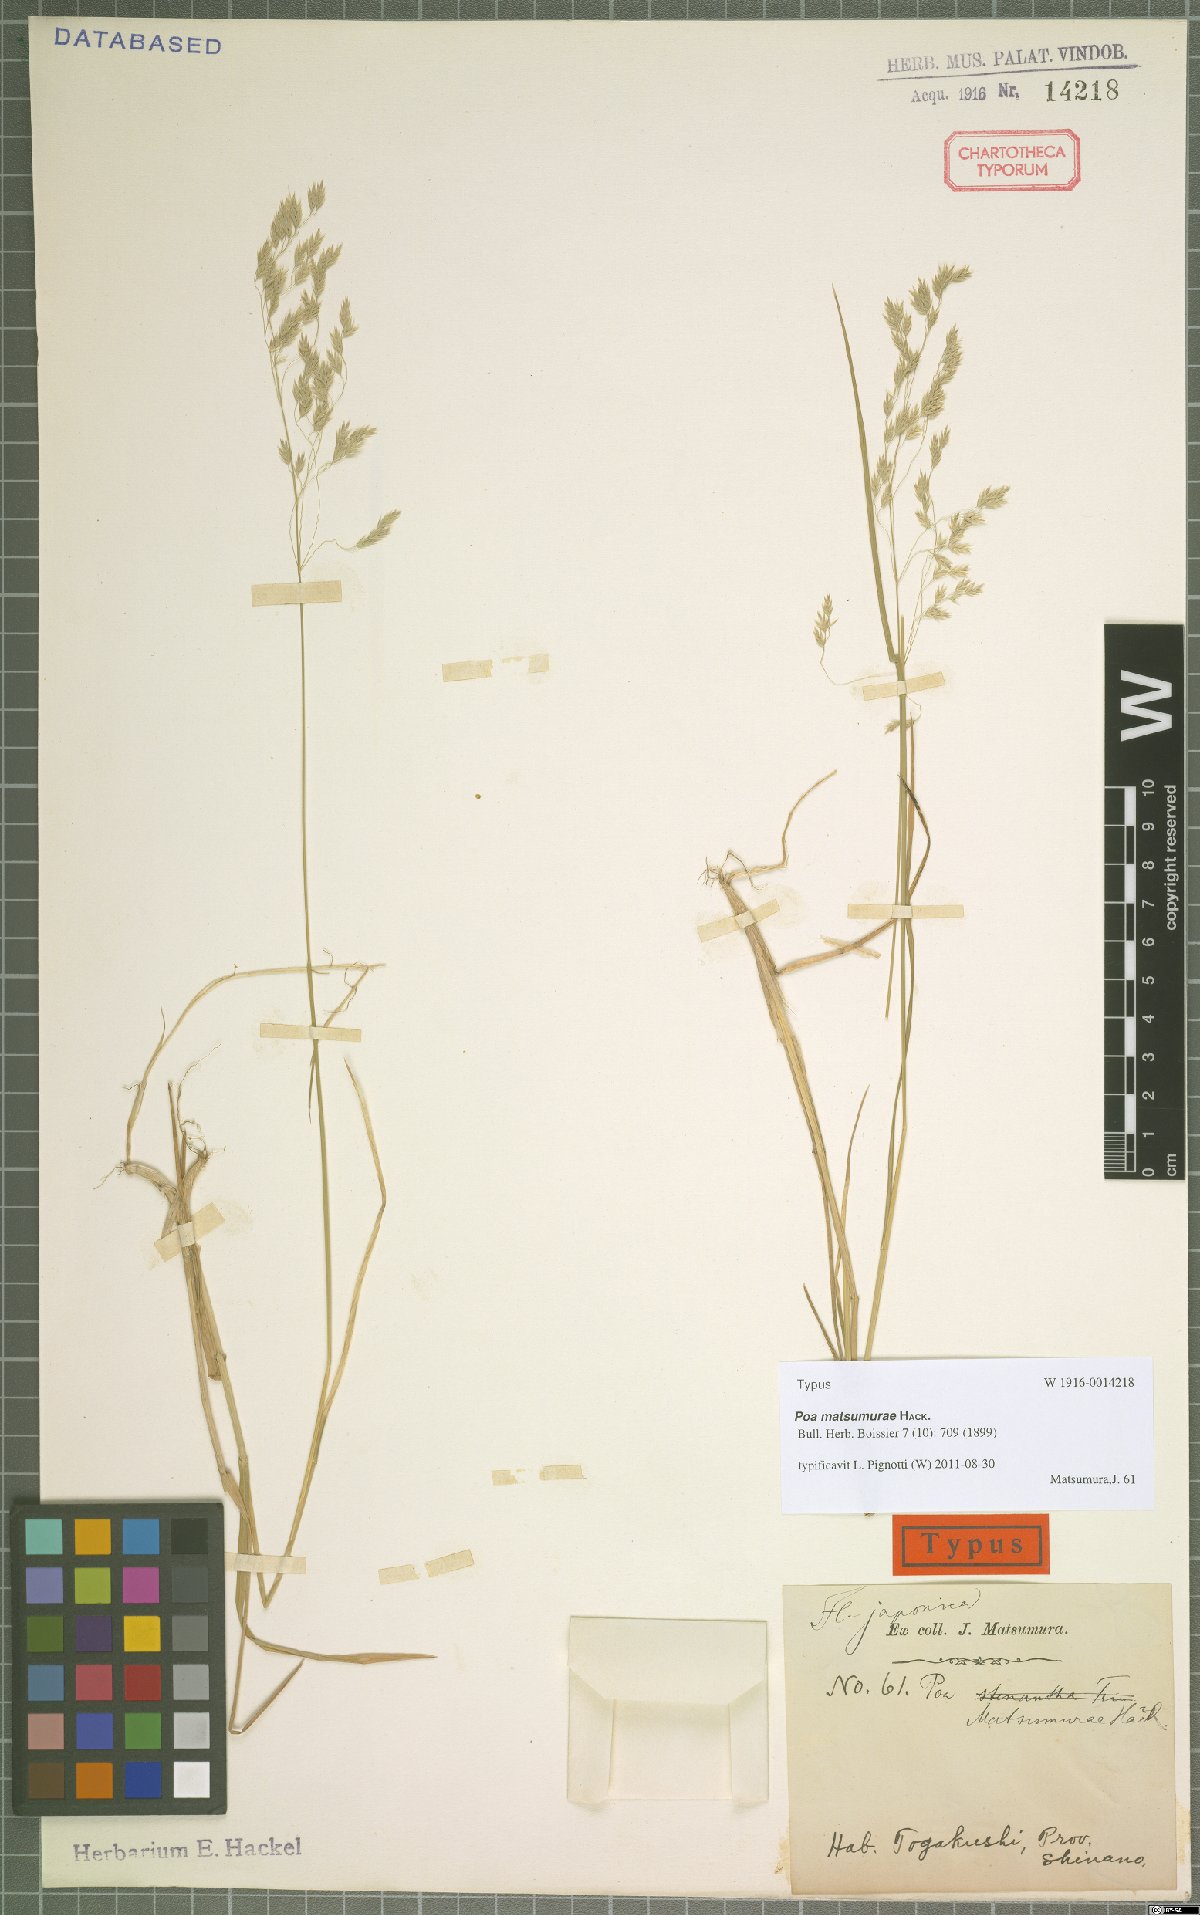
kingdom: Plantae
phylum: Tracheophyta
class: Liliopsida
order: Poales
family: Poaceae
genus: Poa
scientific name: Poa matsumurae
